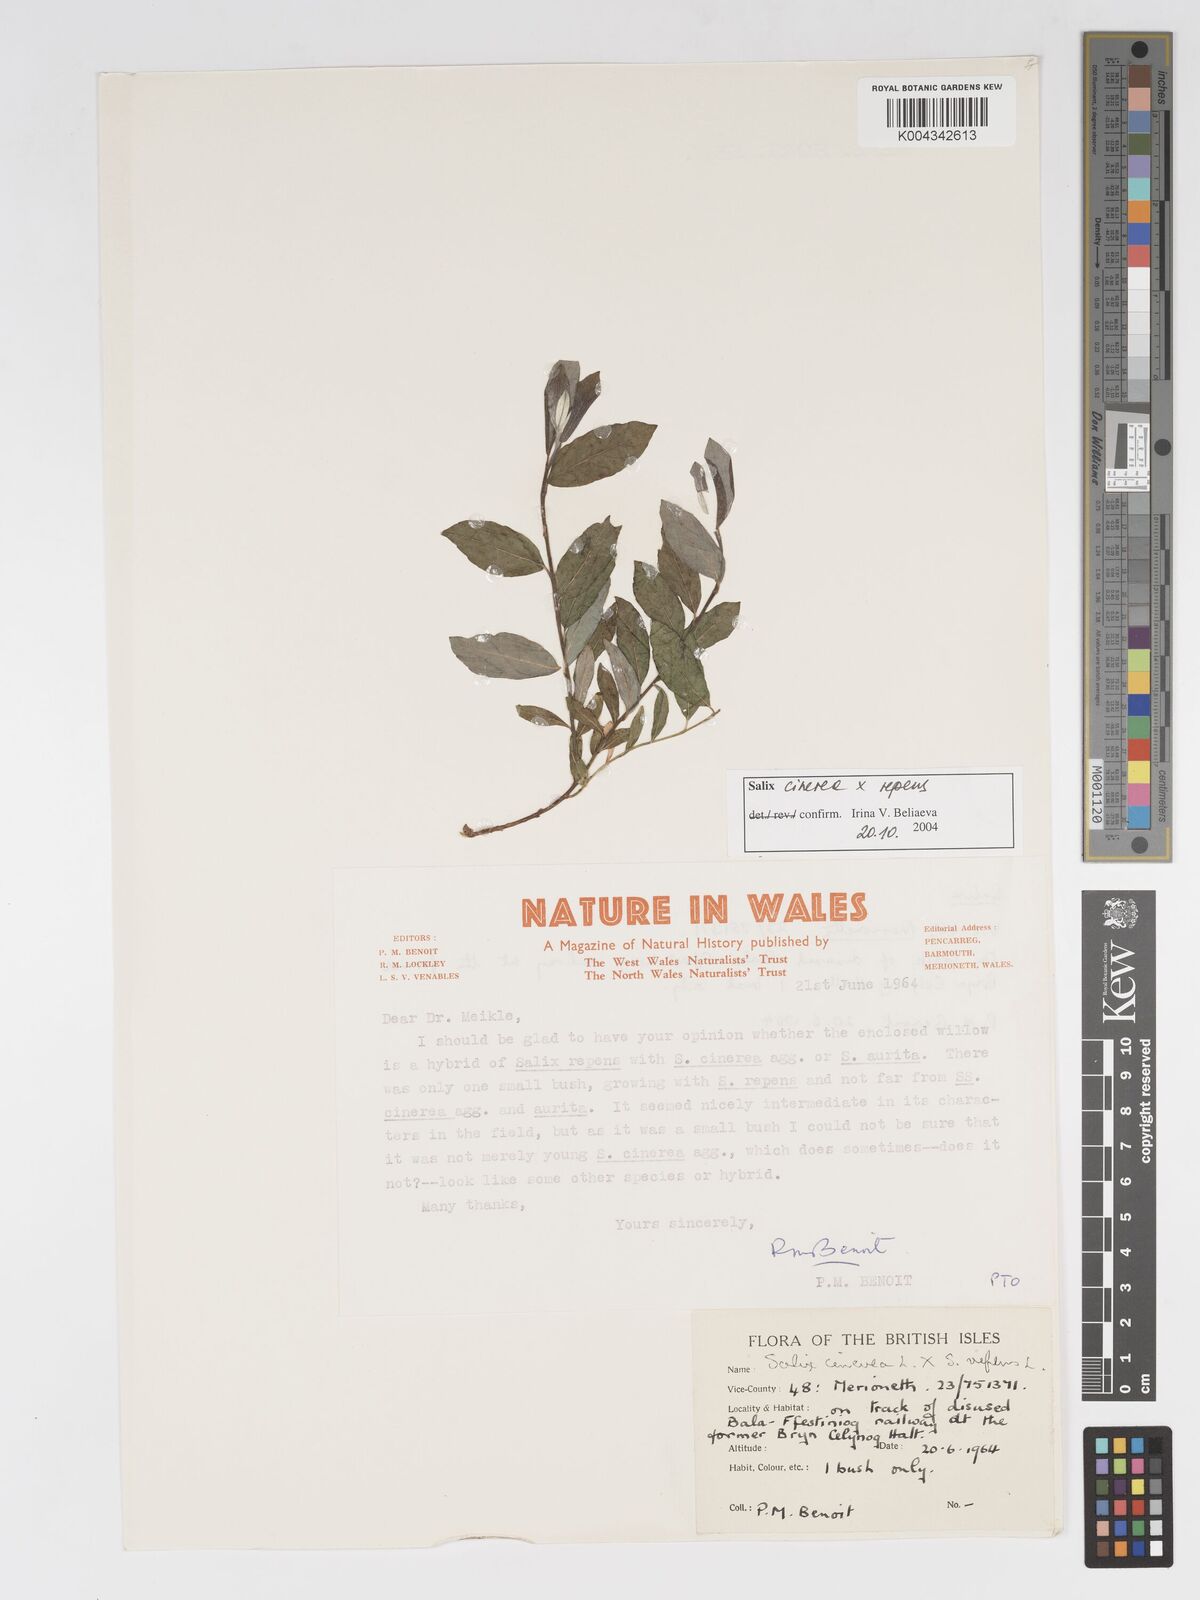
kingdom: Plantae
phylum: Tracheophyta
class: Magnoliopsida
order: Malpighiales
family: Salicaceae
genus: Salix
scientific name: Salix cinerea
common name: Common sallow
